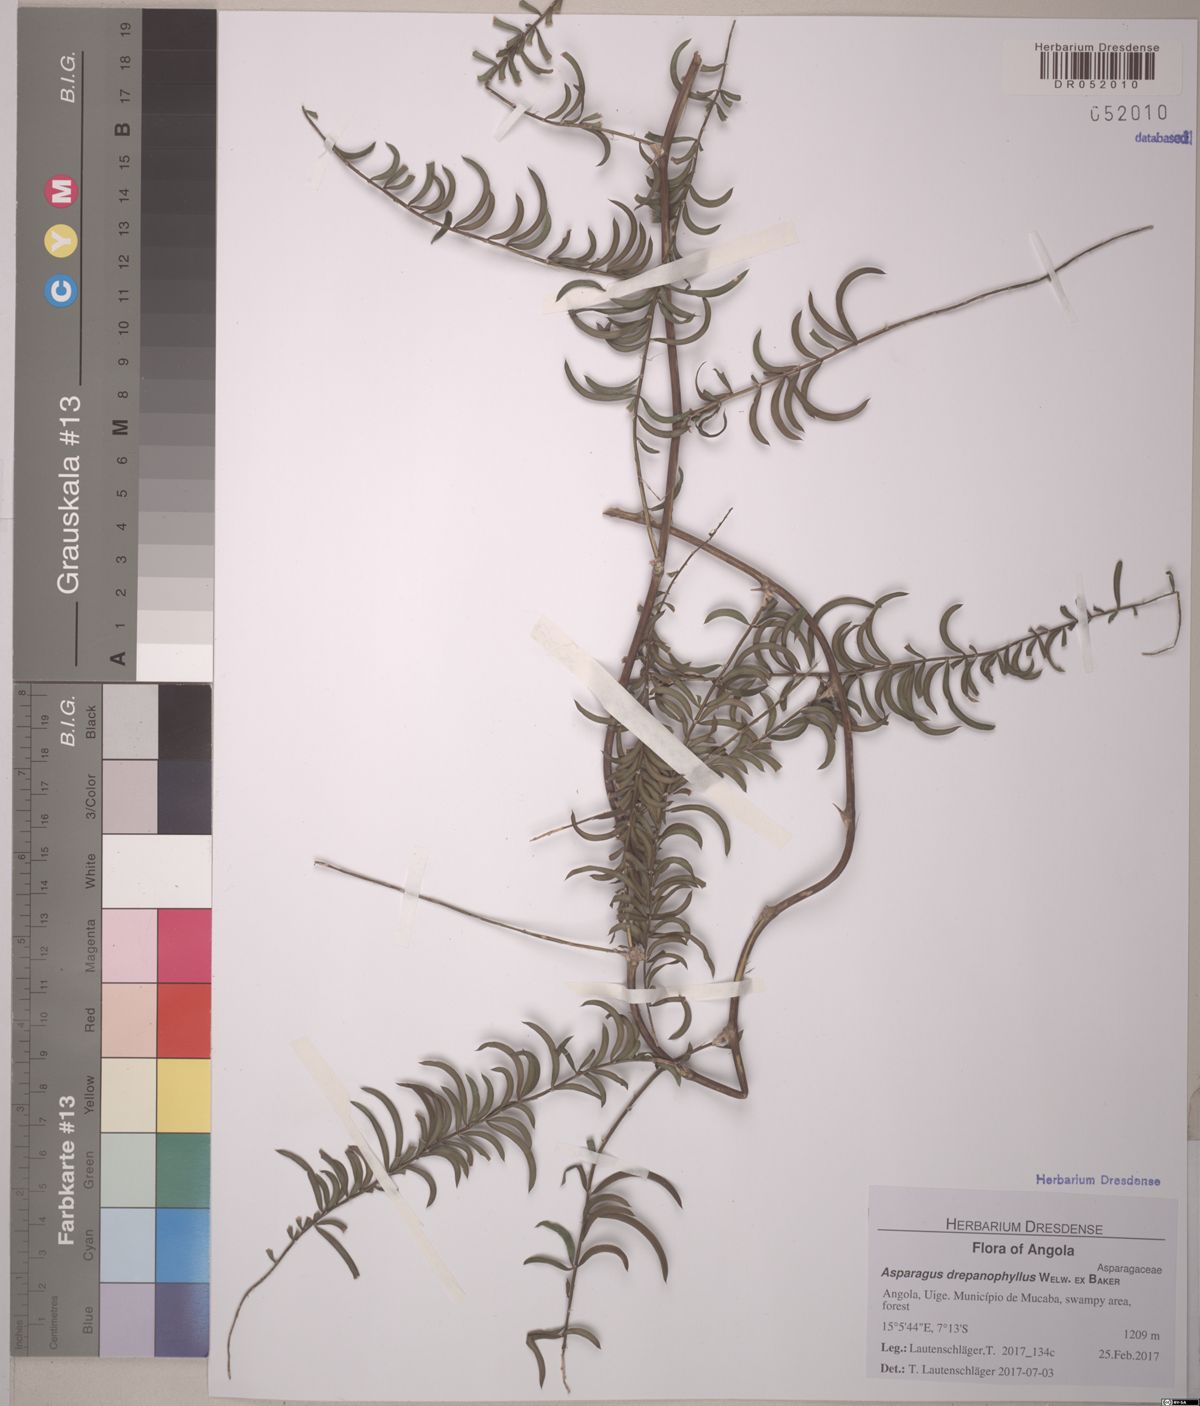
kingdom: Plantae
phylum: Tracheophyta
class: Liliopsida
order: Asparagales
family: Asparagaceae
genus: Asparagus
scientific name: Asparagus drepanophyllus
